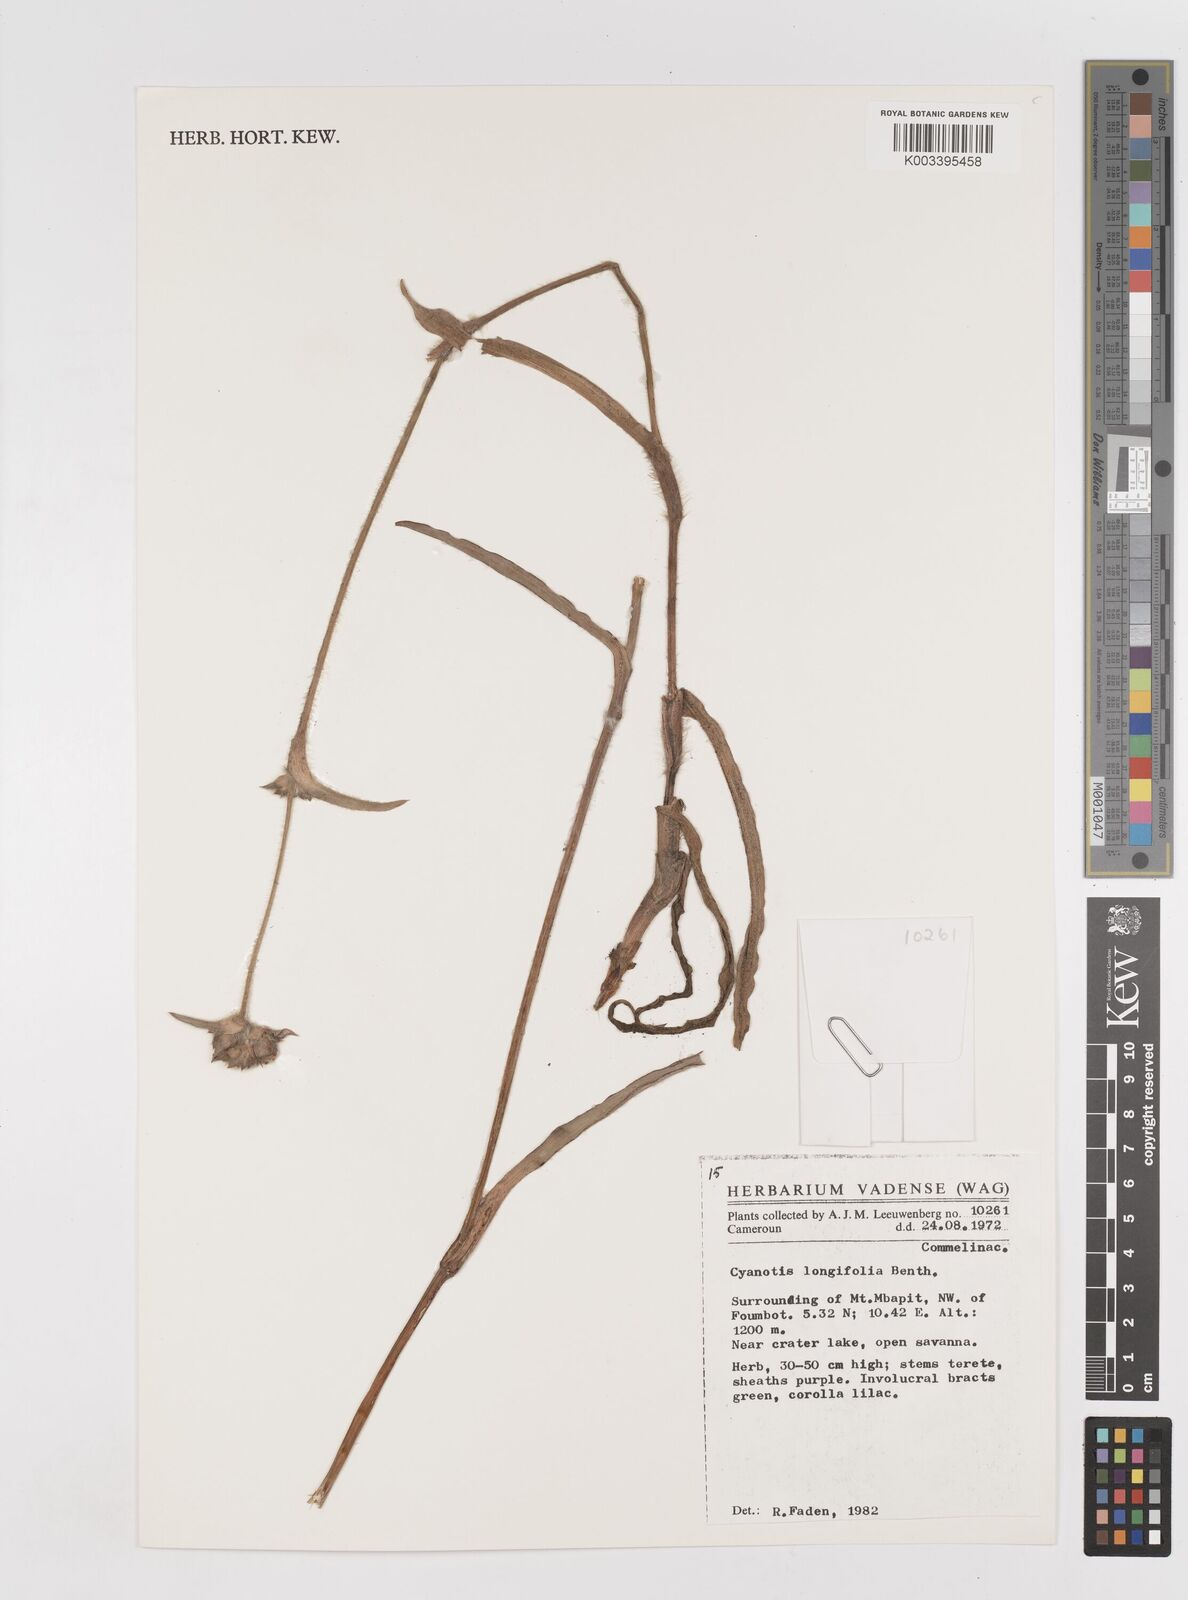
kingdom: Plantae
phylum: Tracheophyta
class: Liliopsida
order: Commelinales
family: Commelinaceae
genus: Cyanotis
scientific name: Cyanotis longifolia
